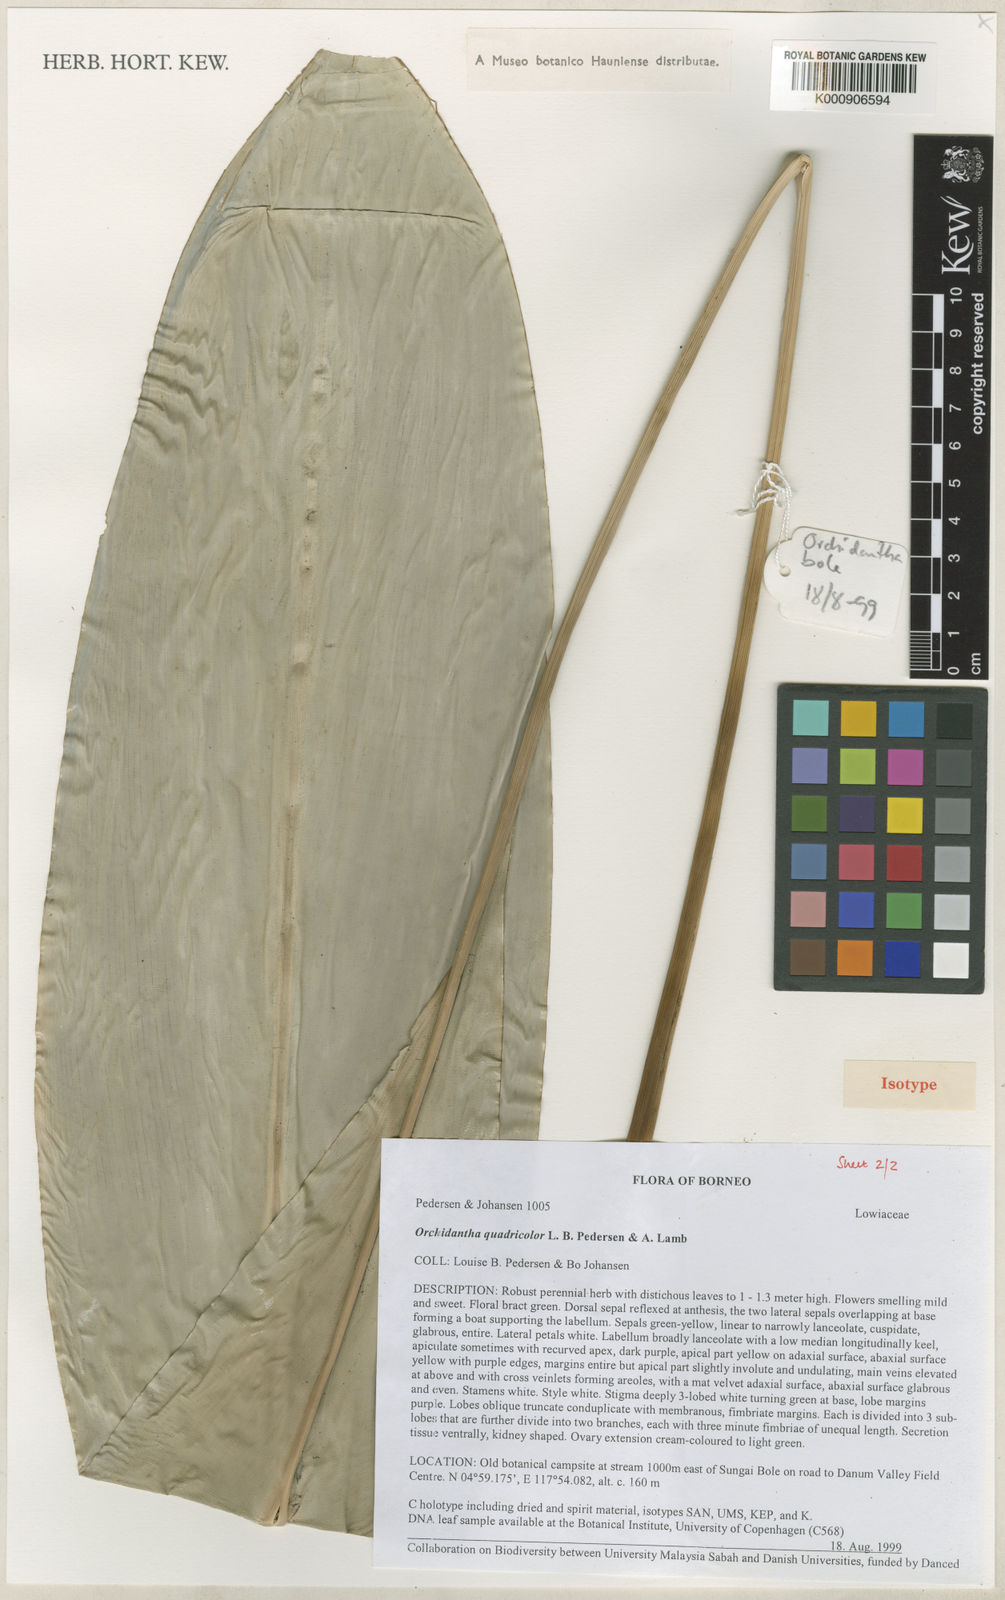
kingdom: Plantae
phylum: Tracheophyta
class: Liliopsida
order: Zingiberales
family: Lowiaceae
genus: Orchidantha
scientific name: Orchidantha quadricolor
